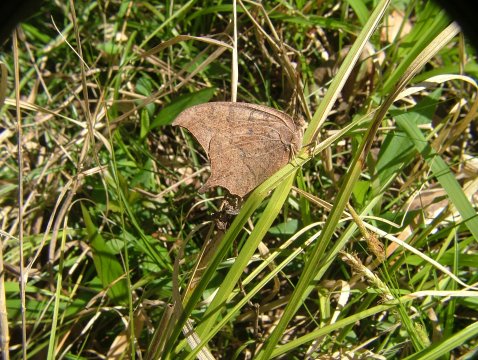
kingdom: Animalia
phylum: Arthropoda
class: Insecta
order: Lepidoptera
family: Nymphalidae
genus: Anaea
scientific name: Anaea andria
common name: Goatweed Leafwing
